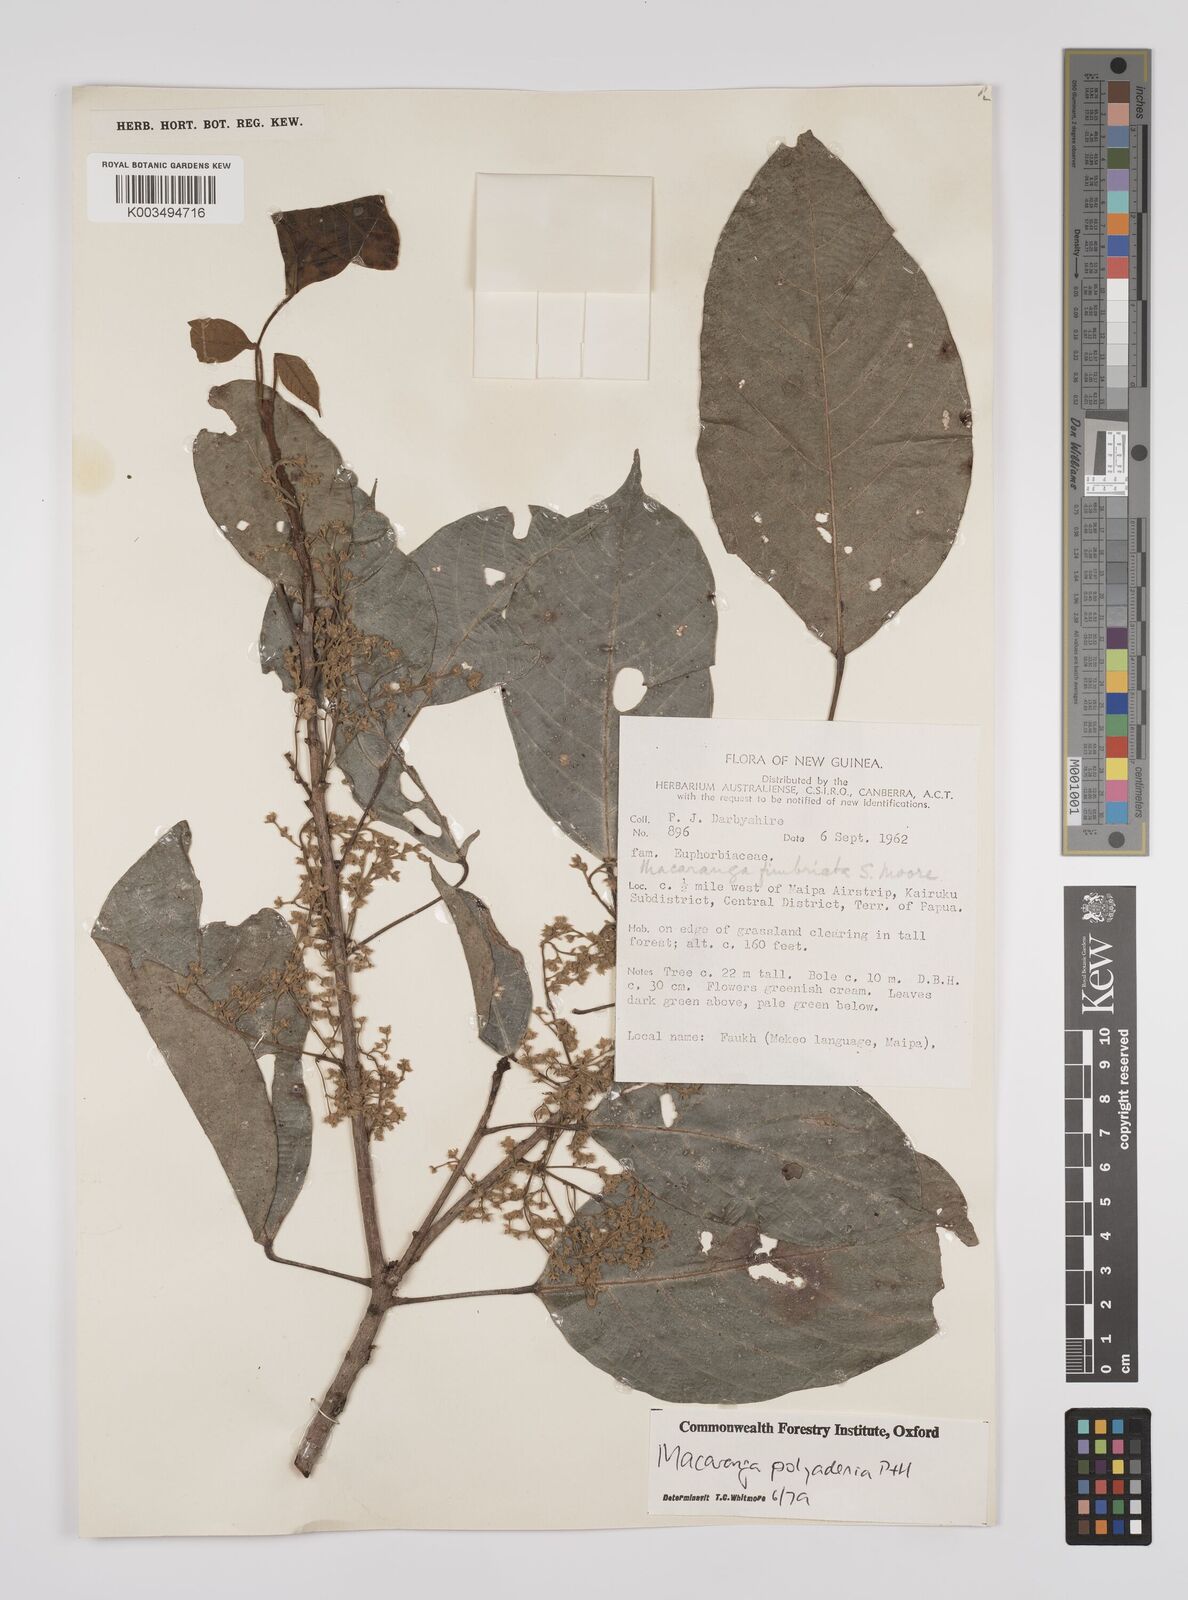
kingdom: Plantae
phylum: Tracheophyta
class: Magnoliopsida
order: Malpighiales
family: Euphorbiaceae
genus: Macaranga
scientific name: Macaranga polyadenia
